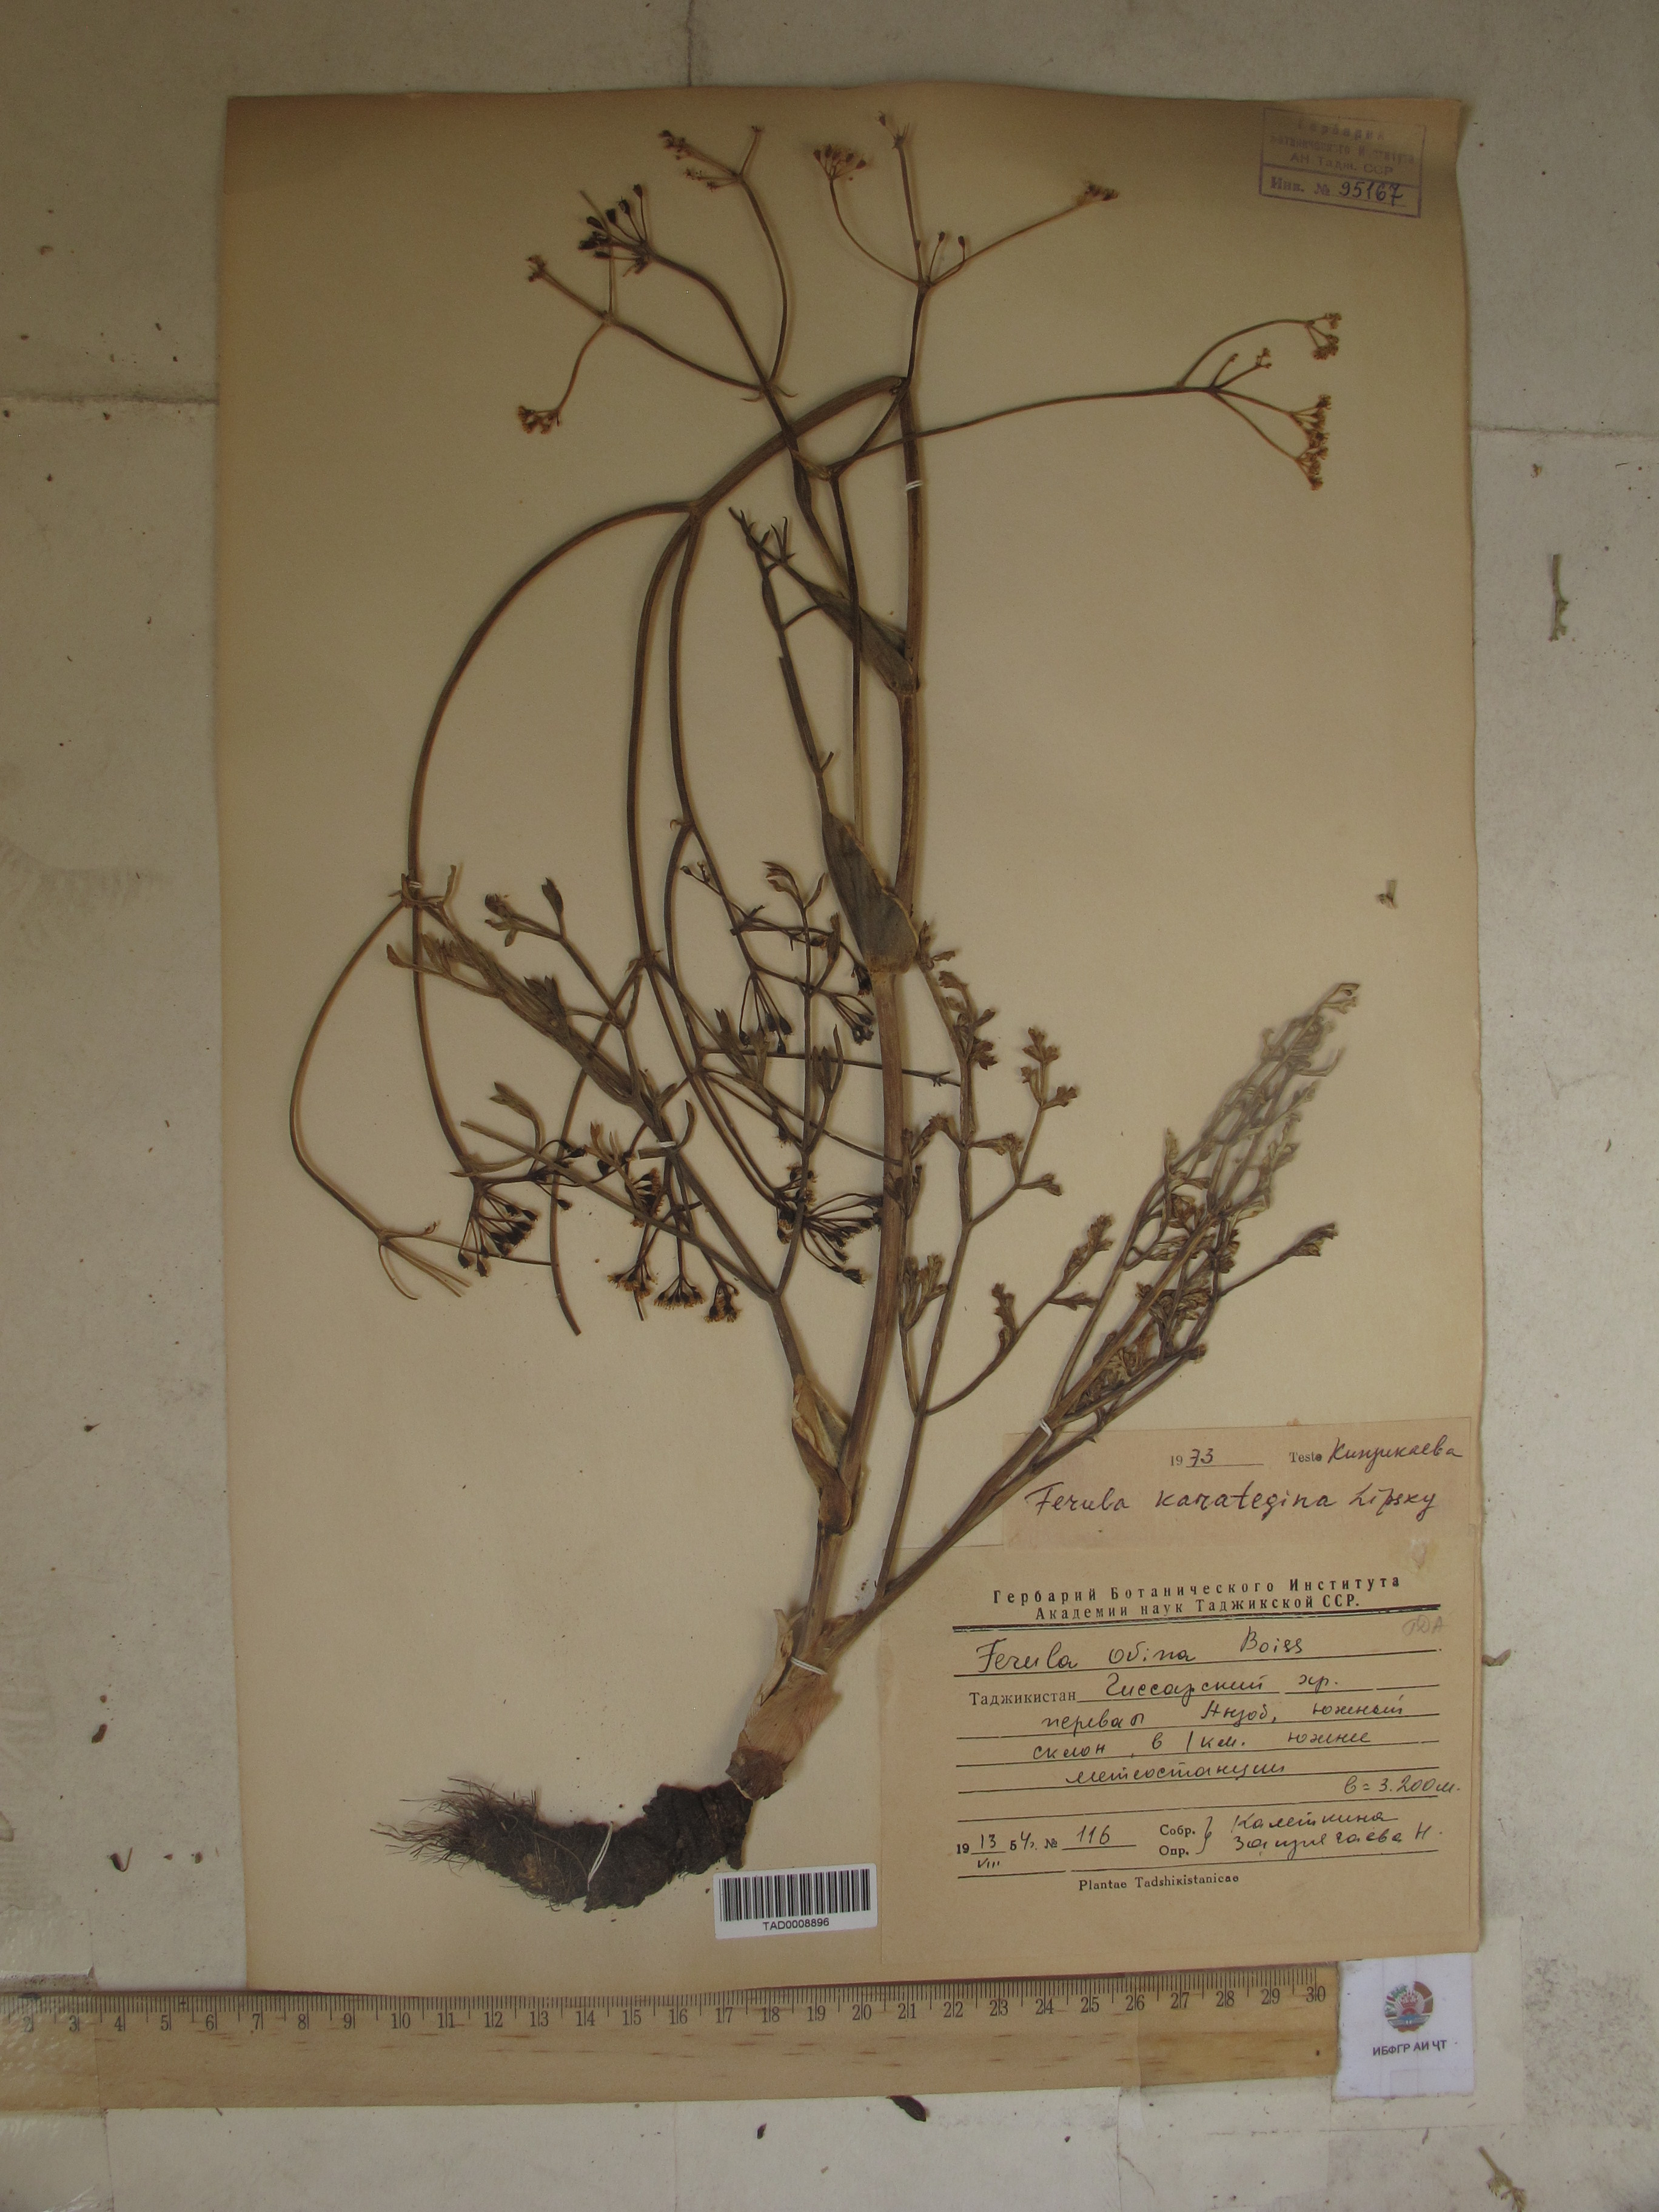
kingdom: Plantae
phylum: Tracheophyta
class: Magnoliopsida
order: Apiales
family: Apiaceae
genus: Ferula
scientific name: Ferula karategina
